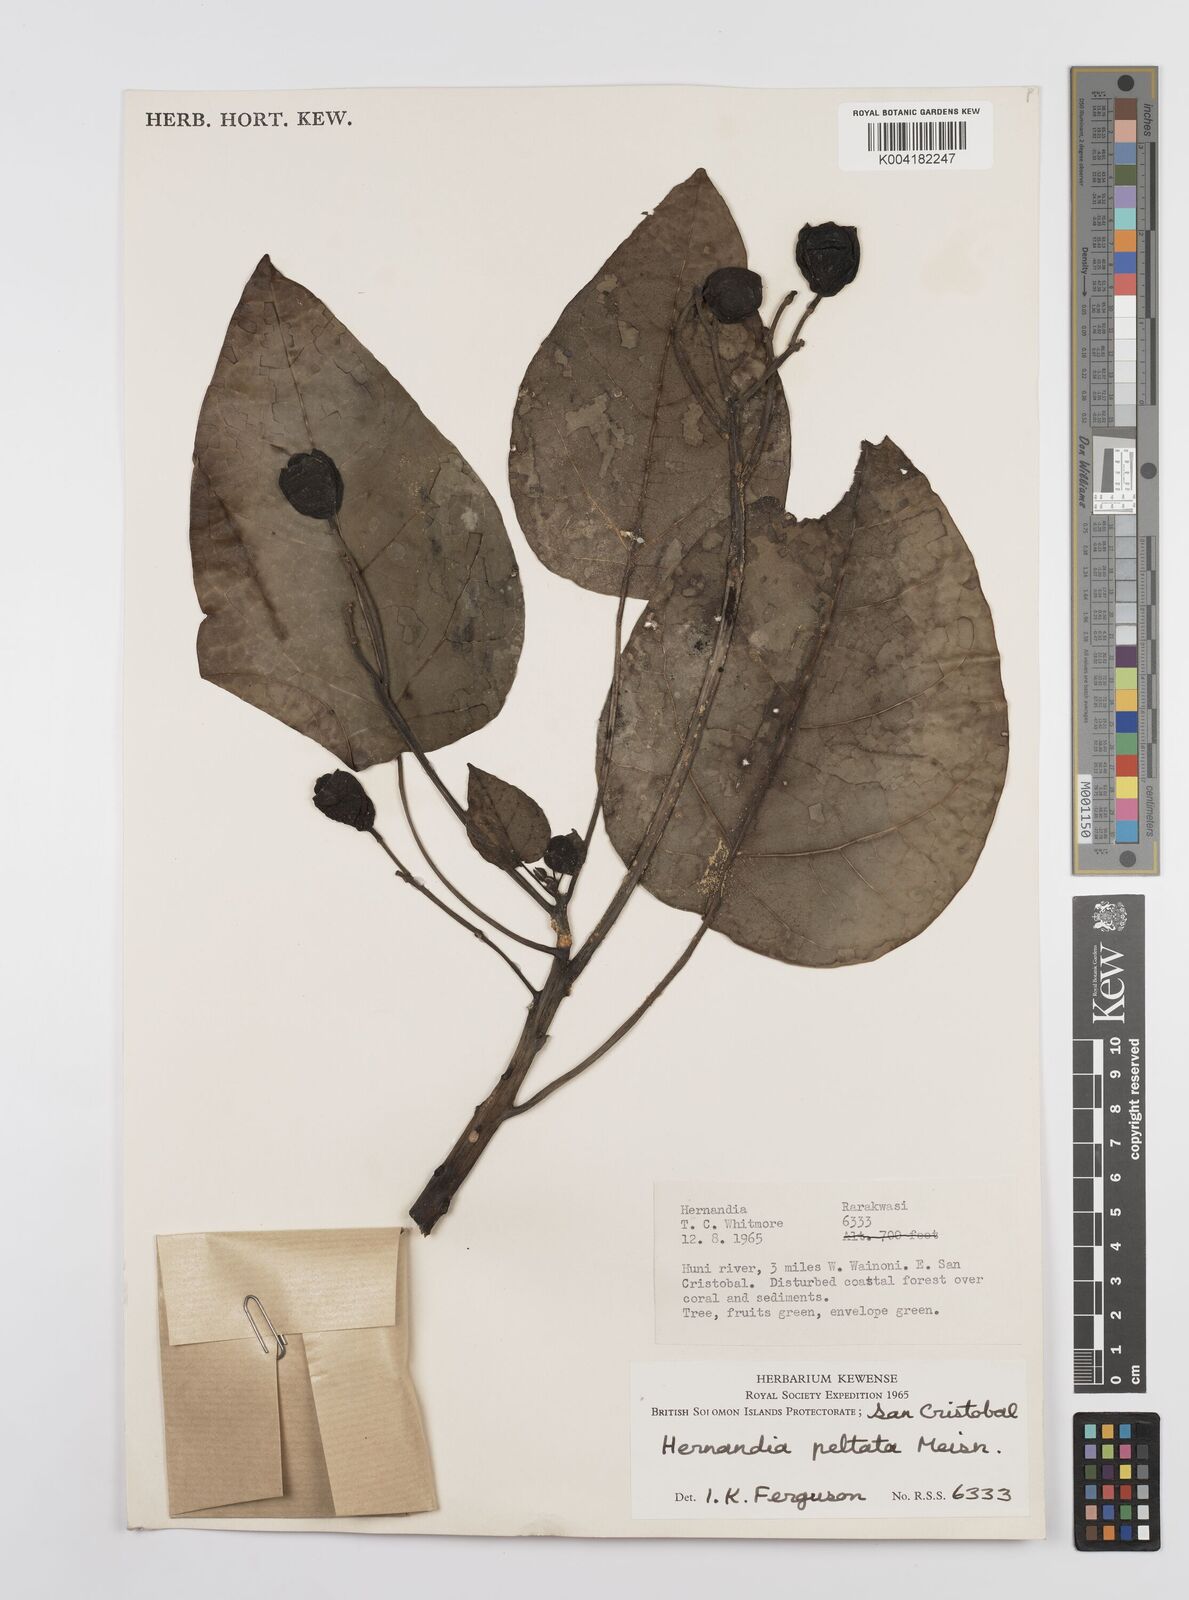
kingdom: Plantae
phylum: Tracheophyta
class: Magnoliopsida
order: Laurales
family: Hernandiaceae
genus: Hernandia
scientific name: Hernandia nymphaeifolia
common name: Sea hearse
